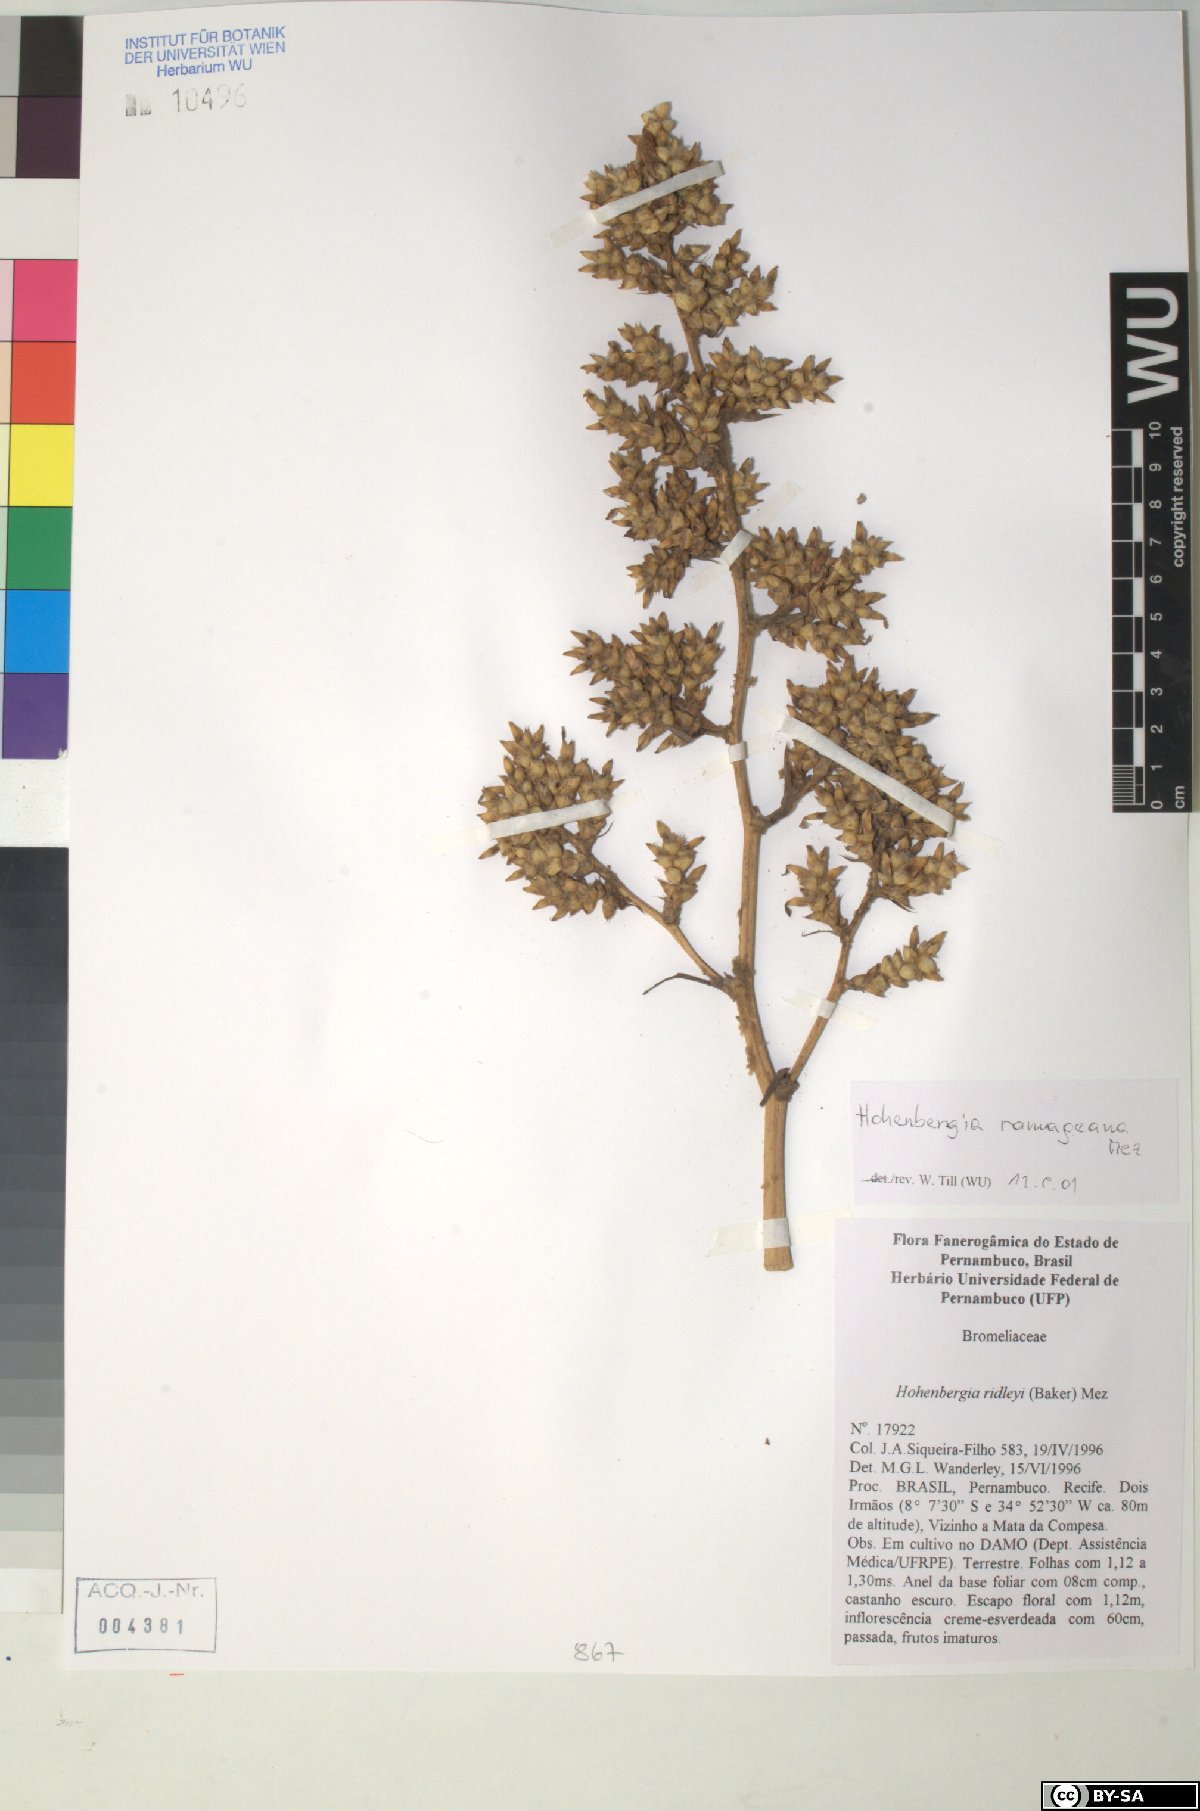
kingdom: Plantae
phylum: Tracheophyta
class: Liliopsida
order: Poales
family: Bromeliaceae
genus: Hohenbergia
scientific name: Hohenbergia ridleyi
